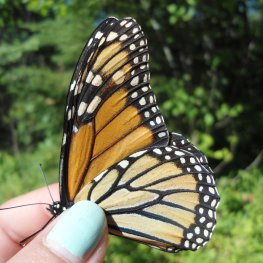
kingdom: Animalia
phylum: Arthropoda
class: Insecta
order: Lepidoptera
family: Nymphalidae
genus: Danaus
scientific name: Danaus plexippus
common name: Monarch
